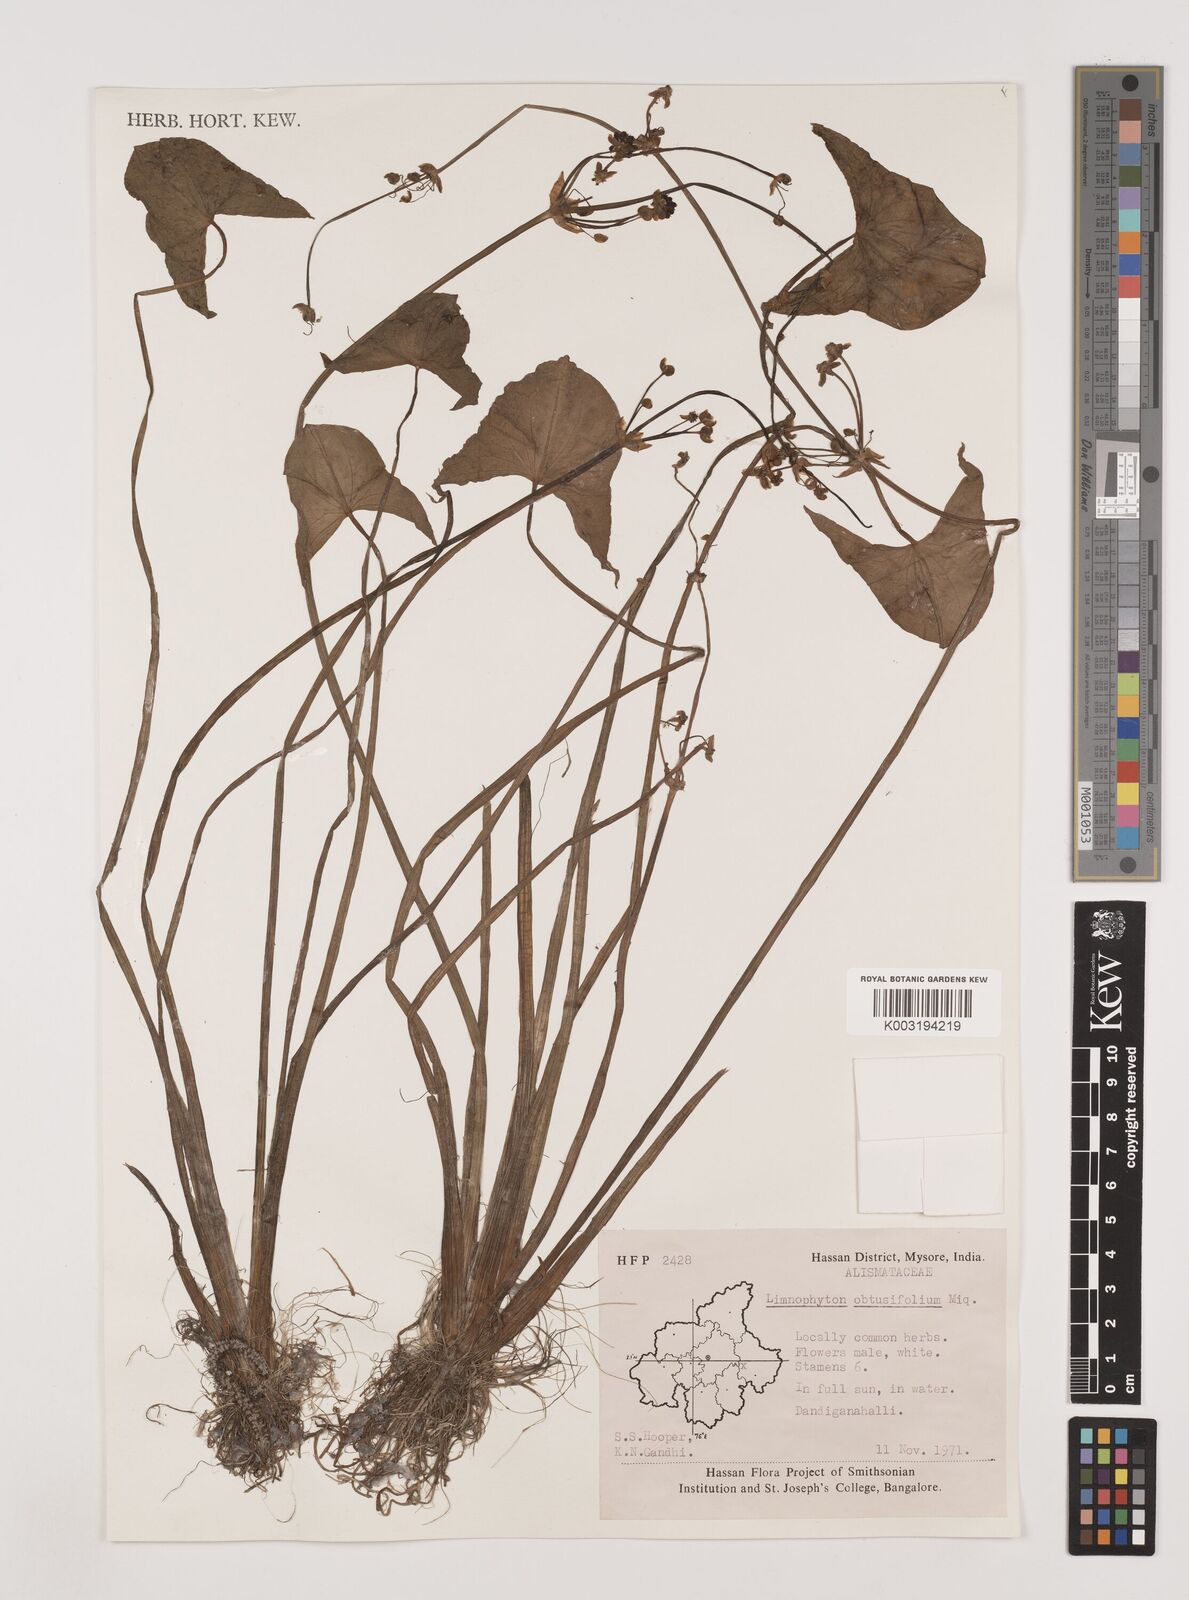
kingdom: Plantae
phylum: Tracheophyta
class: Liliopsida
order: Alismatales
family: Alismataceae
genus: Limnophyton
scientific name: Limnophyton obtusifolium
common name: Arrow head
